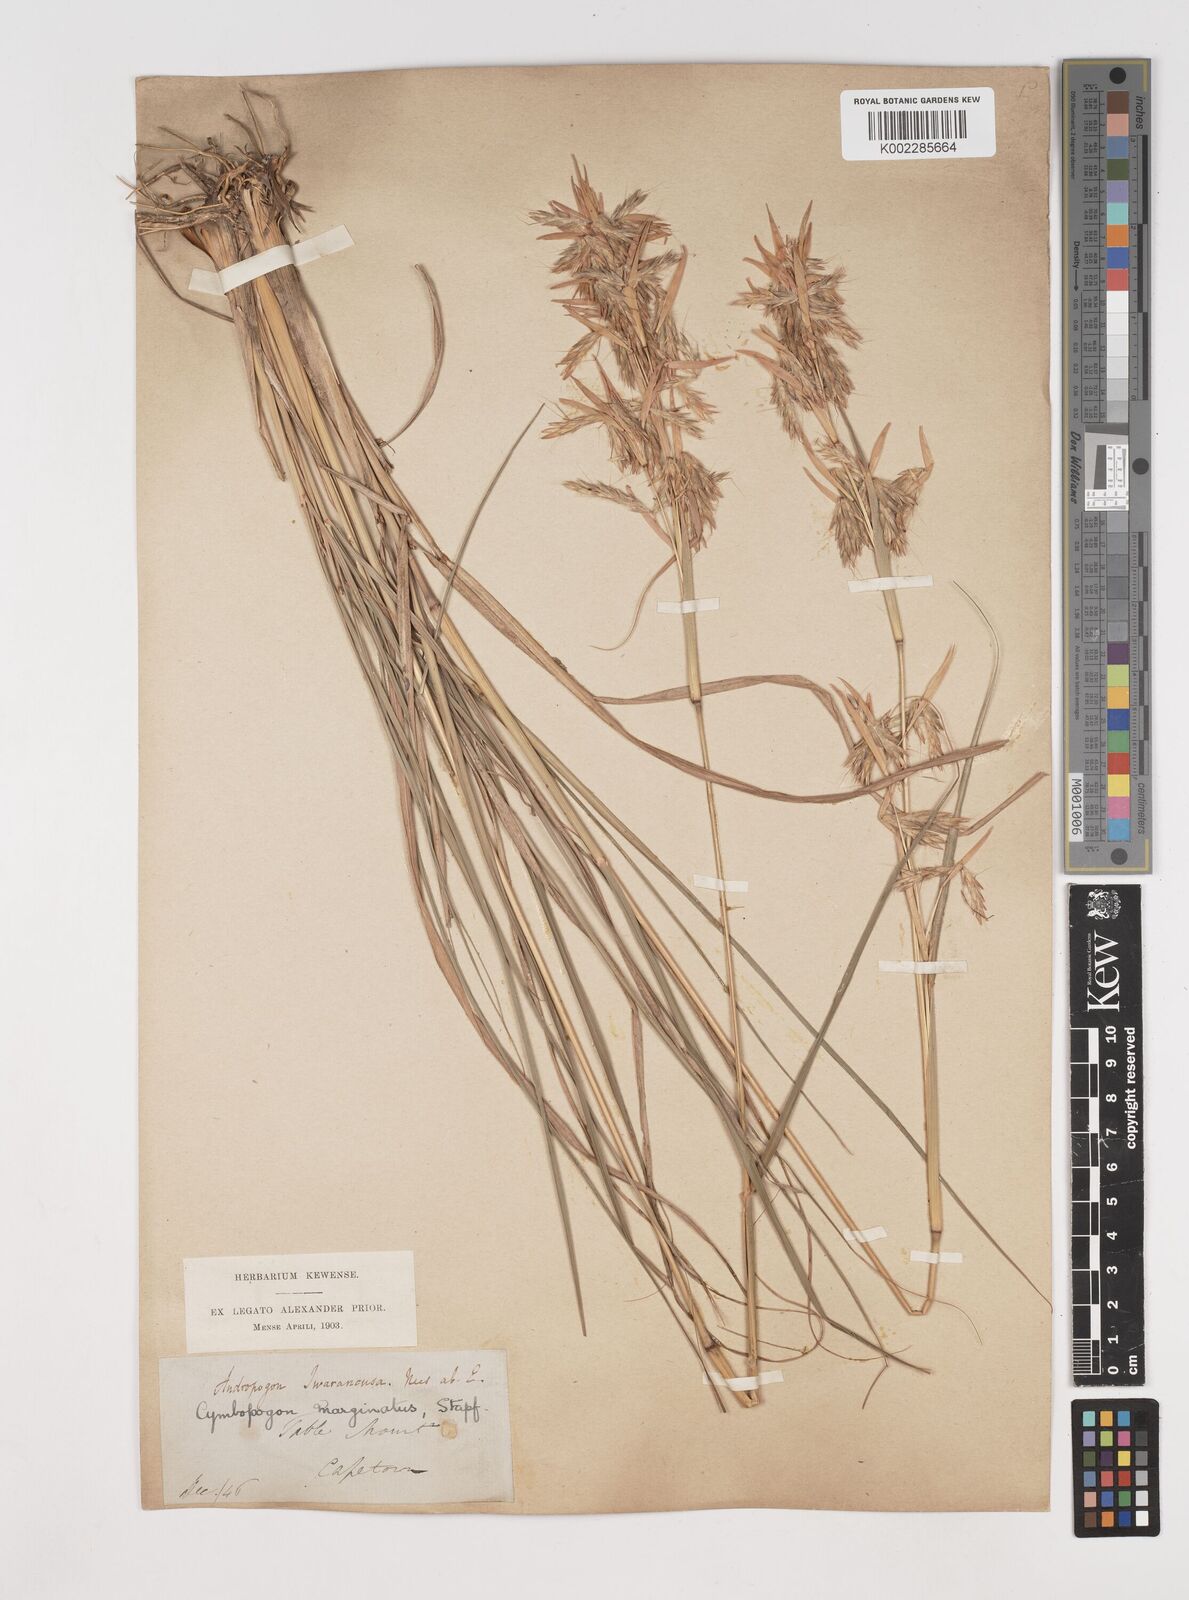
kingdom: Plantae
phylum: Tracheophyta
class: Liliopsida
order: Poales
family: Poaceae
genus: Cymbopogon
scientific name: Cymbopogon marginatus
